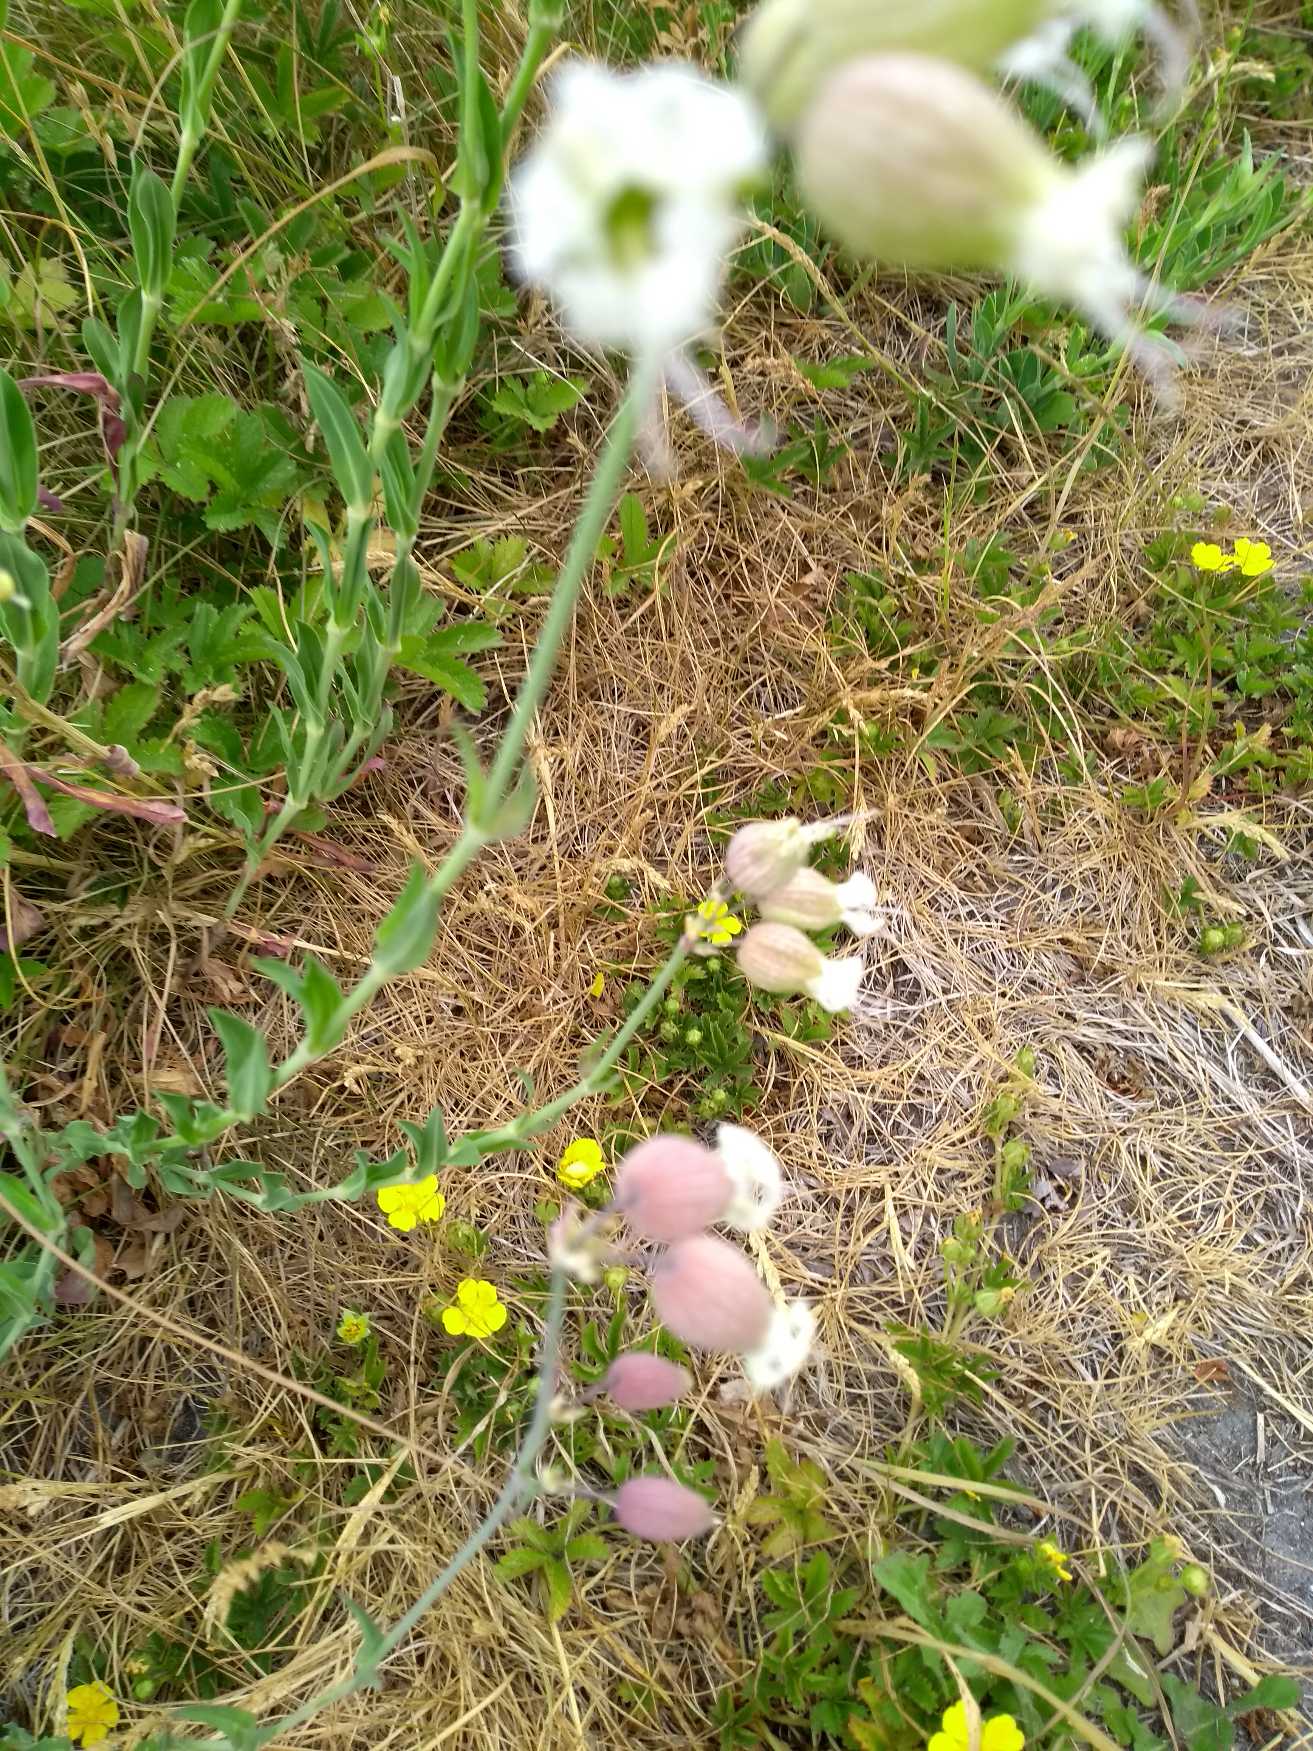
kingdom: Plantae
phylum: Tracheophyta
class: Magnoliopsida
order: Caryophyllales
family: Caryophyllaceae
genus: Silene
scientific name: Silene vulgaris
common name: Blæresmælde
